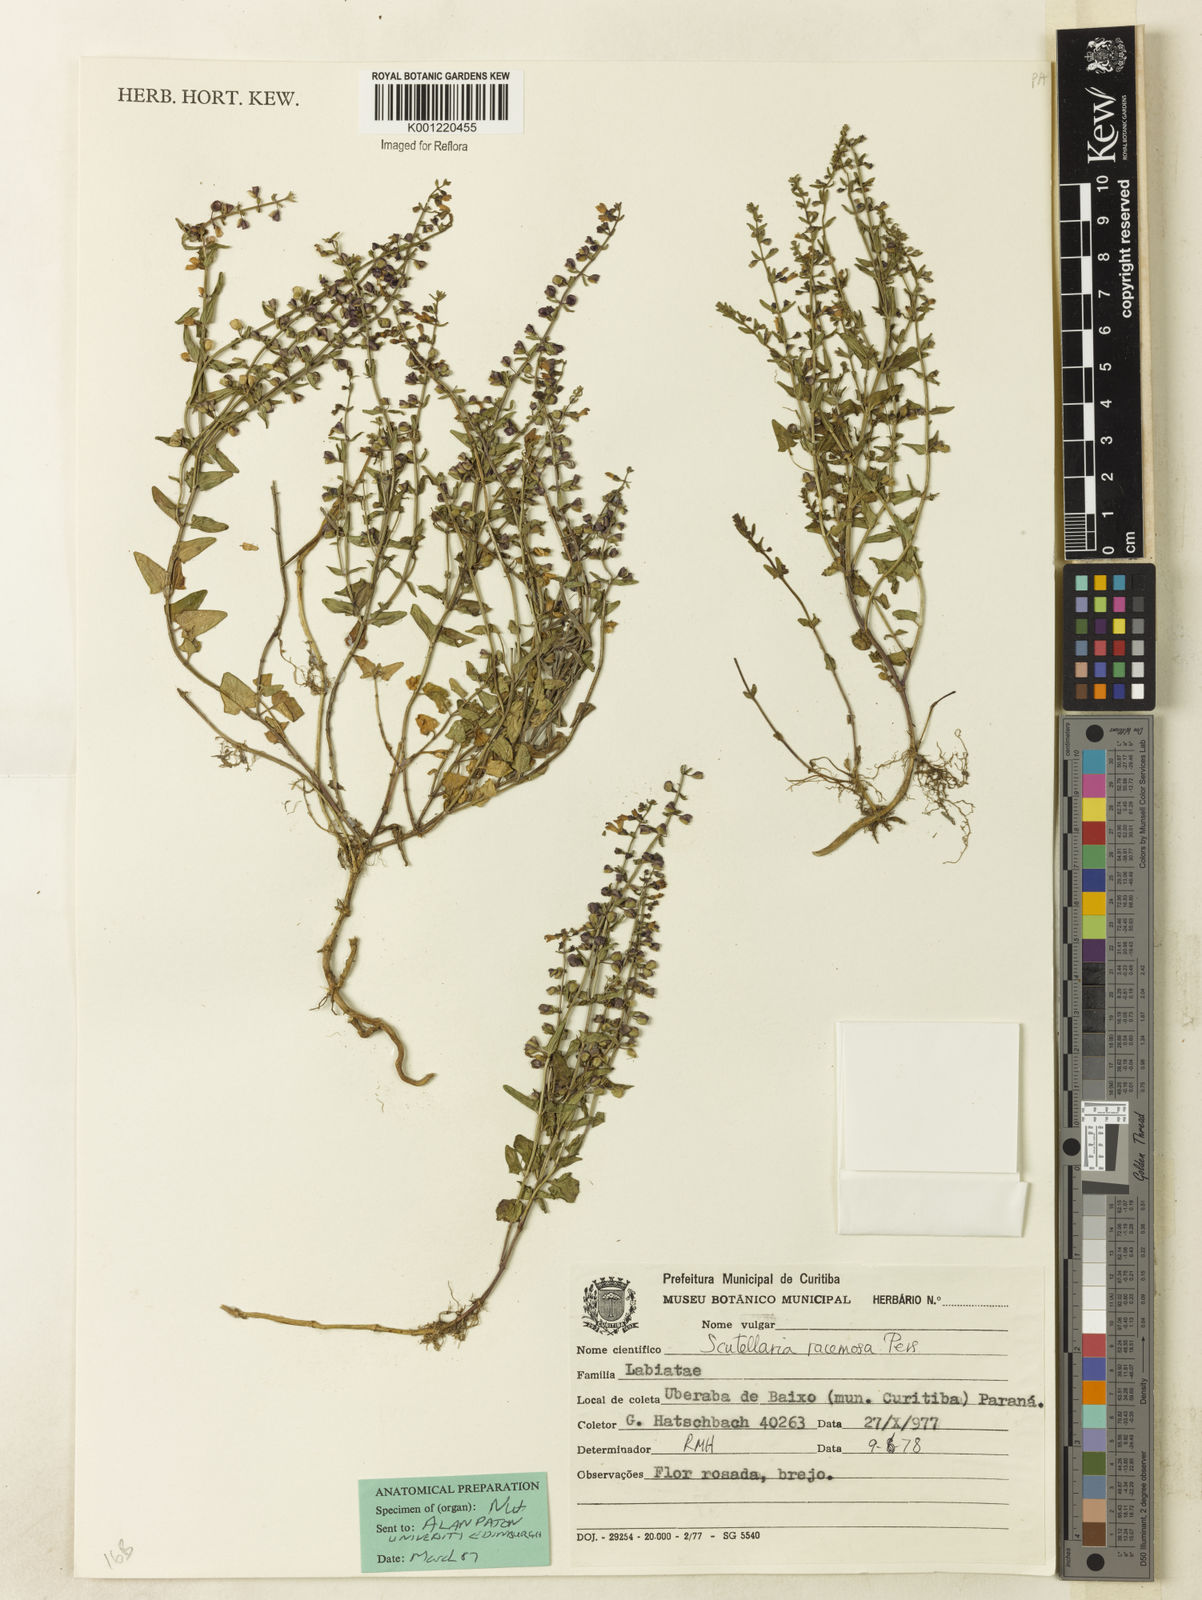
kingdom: Plantae
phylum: Tracheophyta
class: Magnoliopsida
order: Lamiales
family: Lamiaceae
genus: Scutellaria
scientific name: Scutellaria racemosa
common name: South american skullcap
